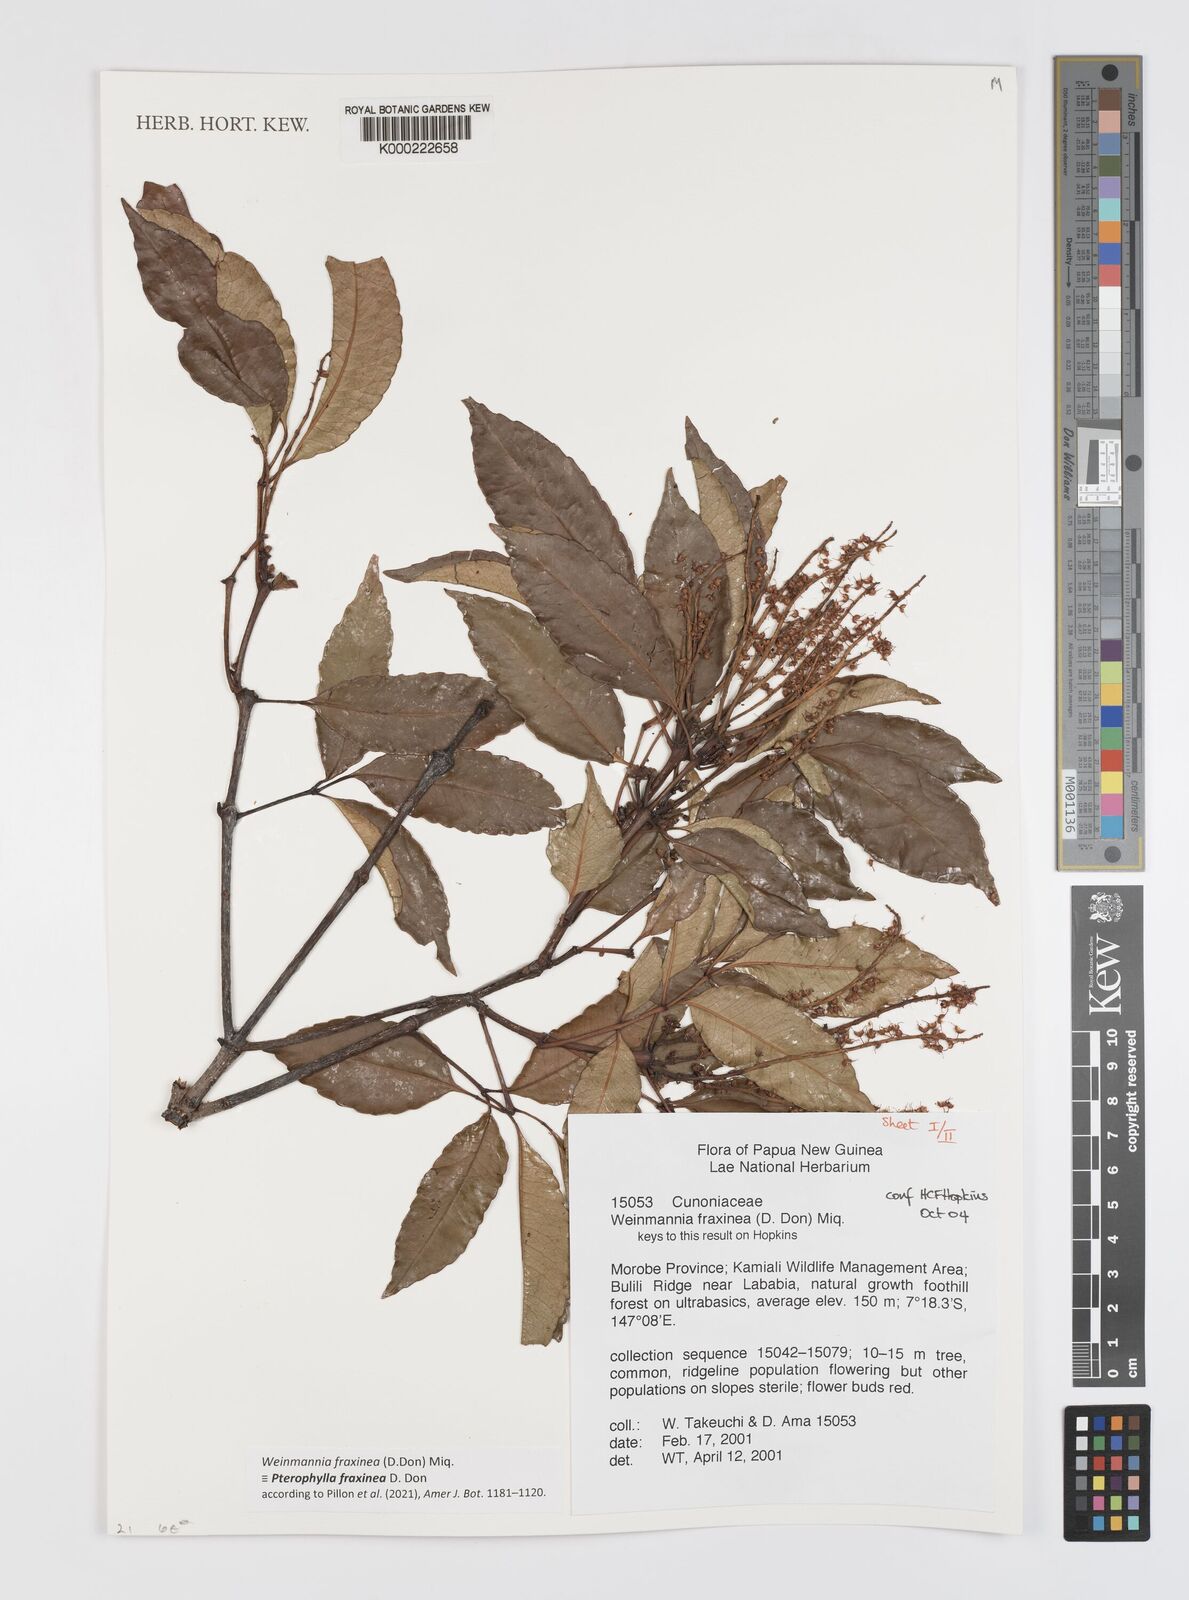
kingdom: Plantae
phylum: Tracheophyta
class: Magnoliopsida
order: Oxalidales
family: Cunoniaceae
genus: Pterophylla
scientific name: Pterophylla fraxinea
